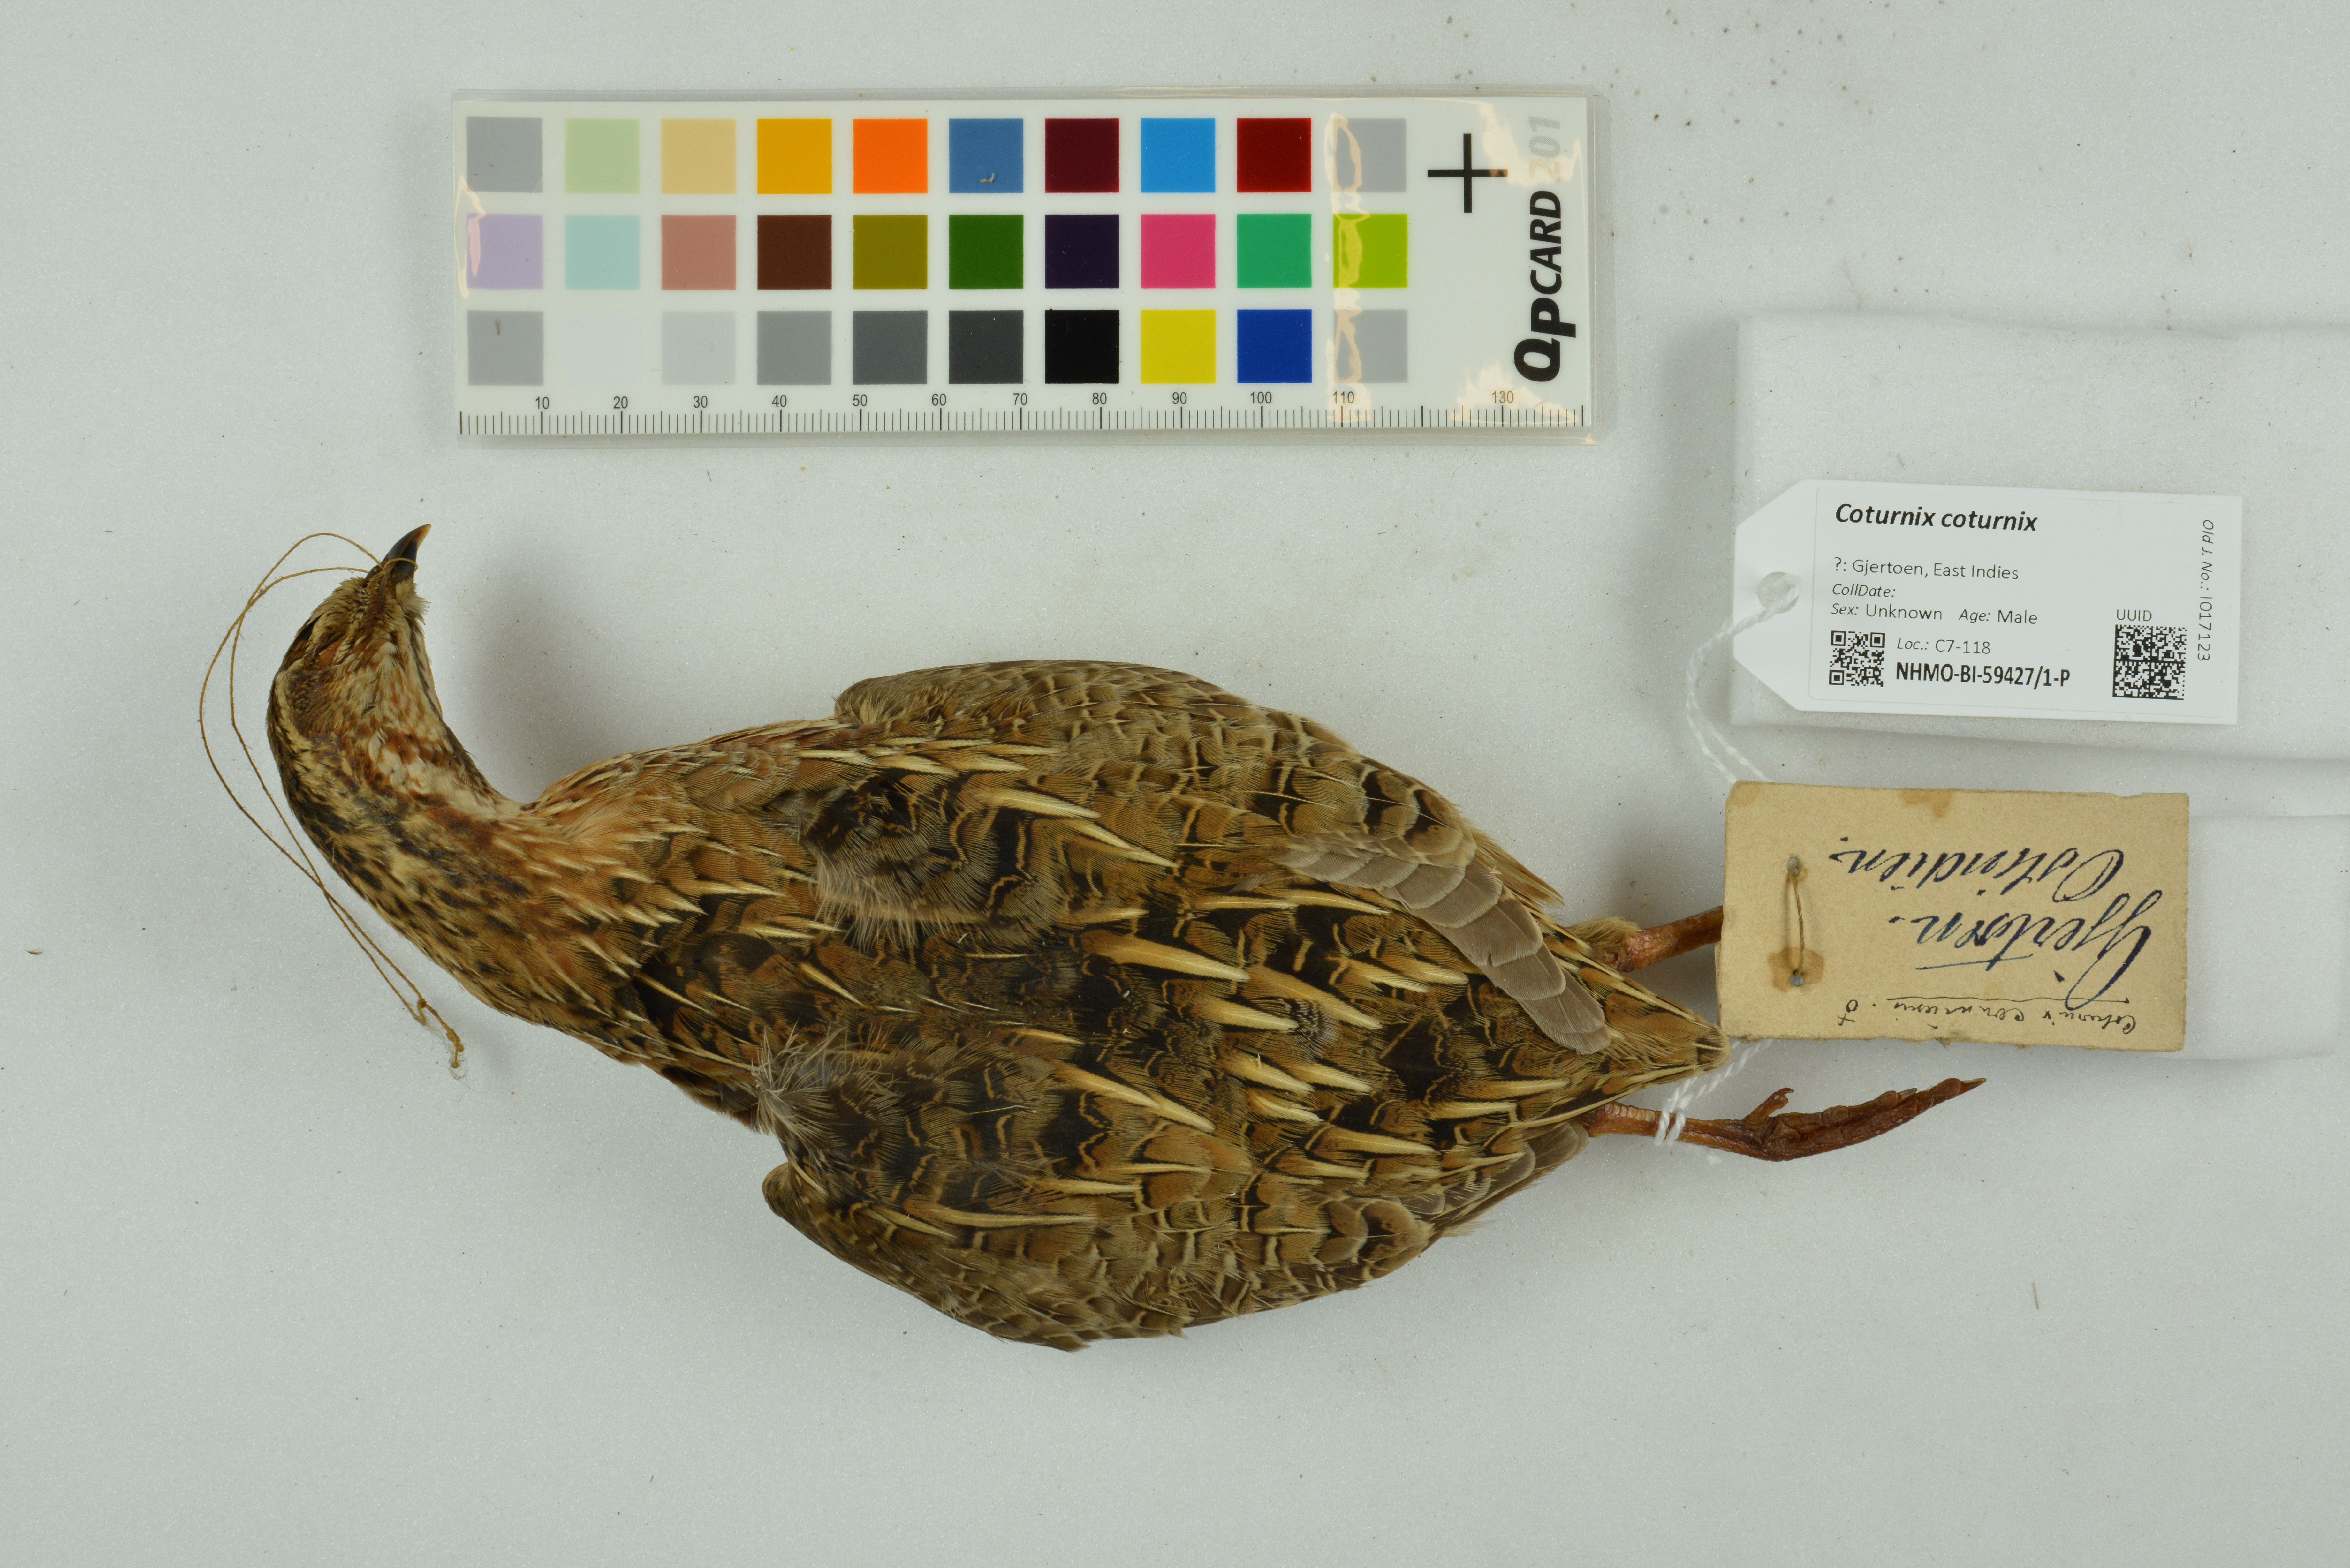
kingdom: Animalia
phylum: Chordata
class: Aves
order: Galliformes
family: Phasianidae
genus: Coturnix
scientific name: Coturnix coturnix
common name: Common quail
